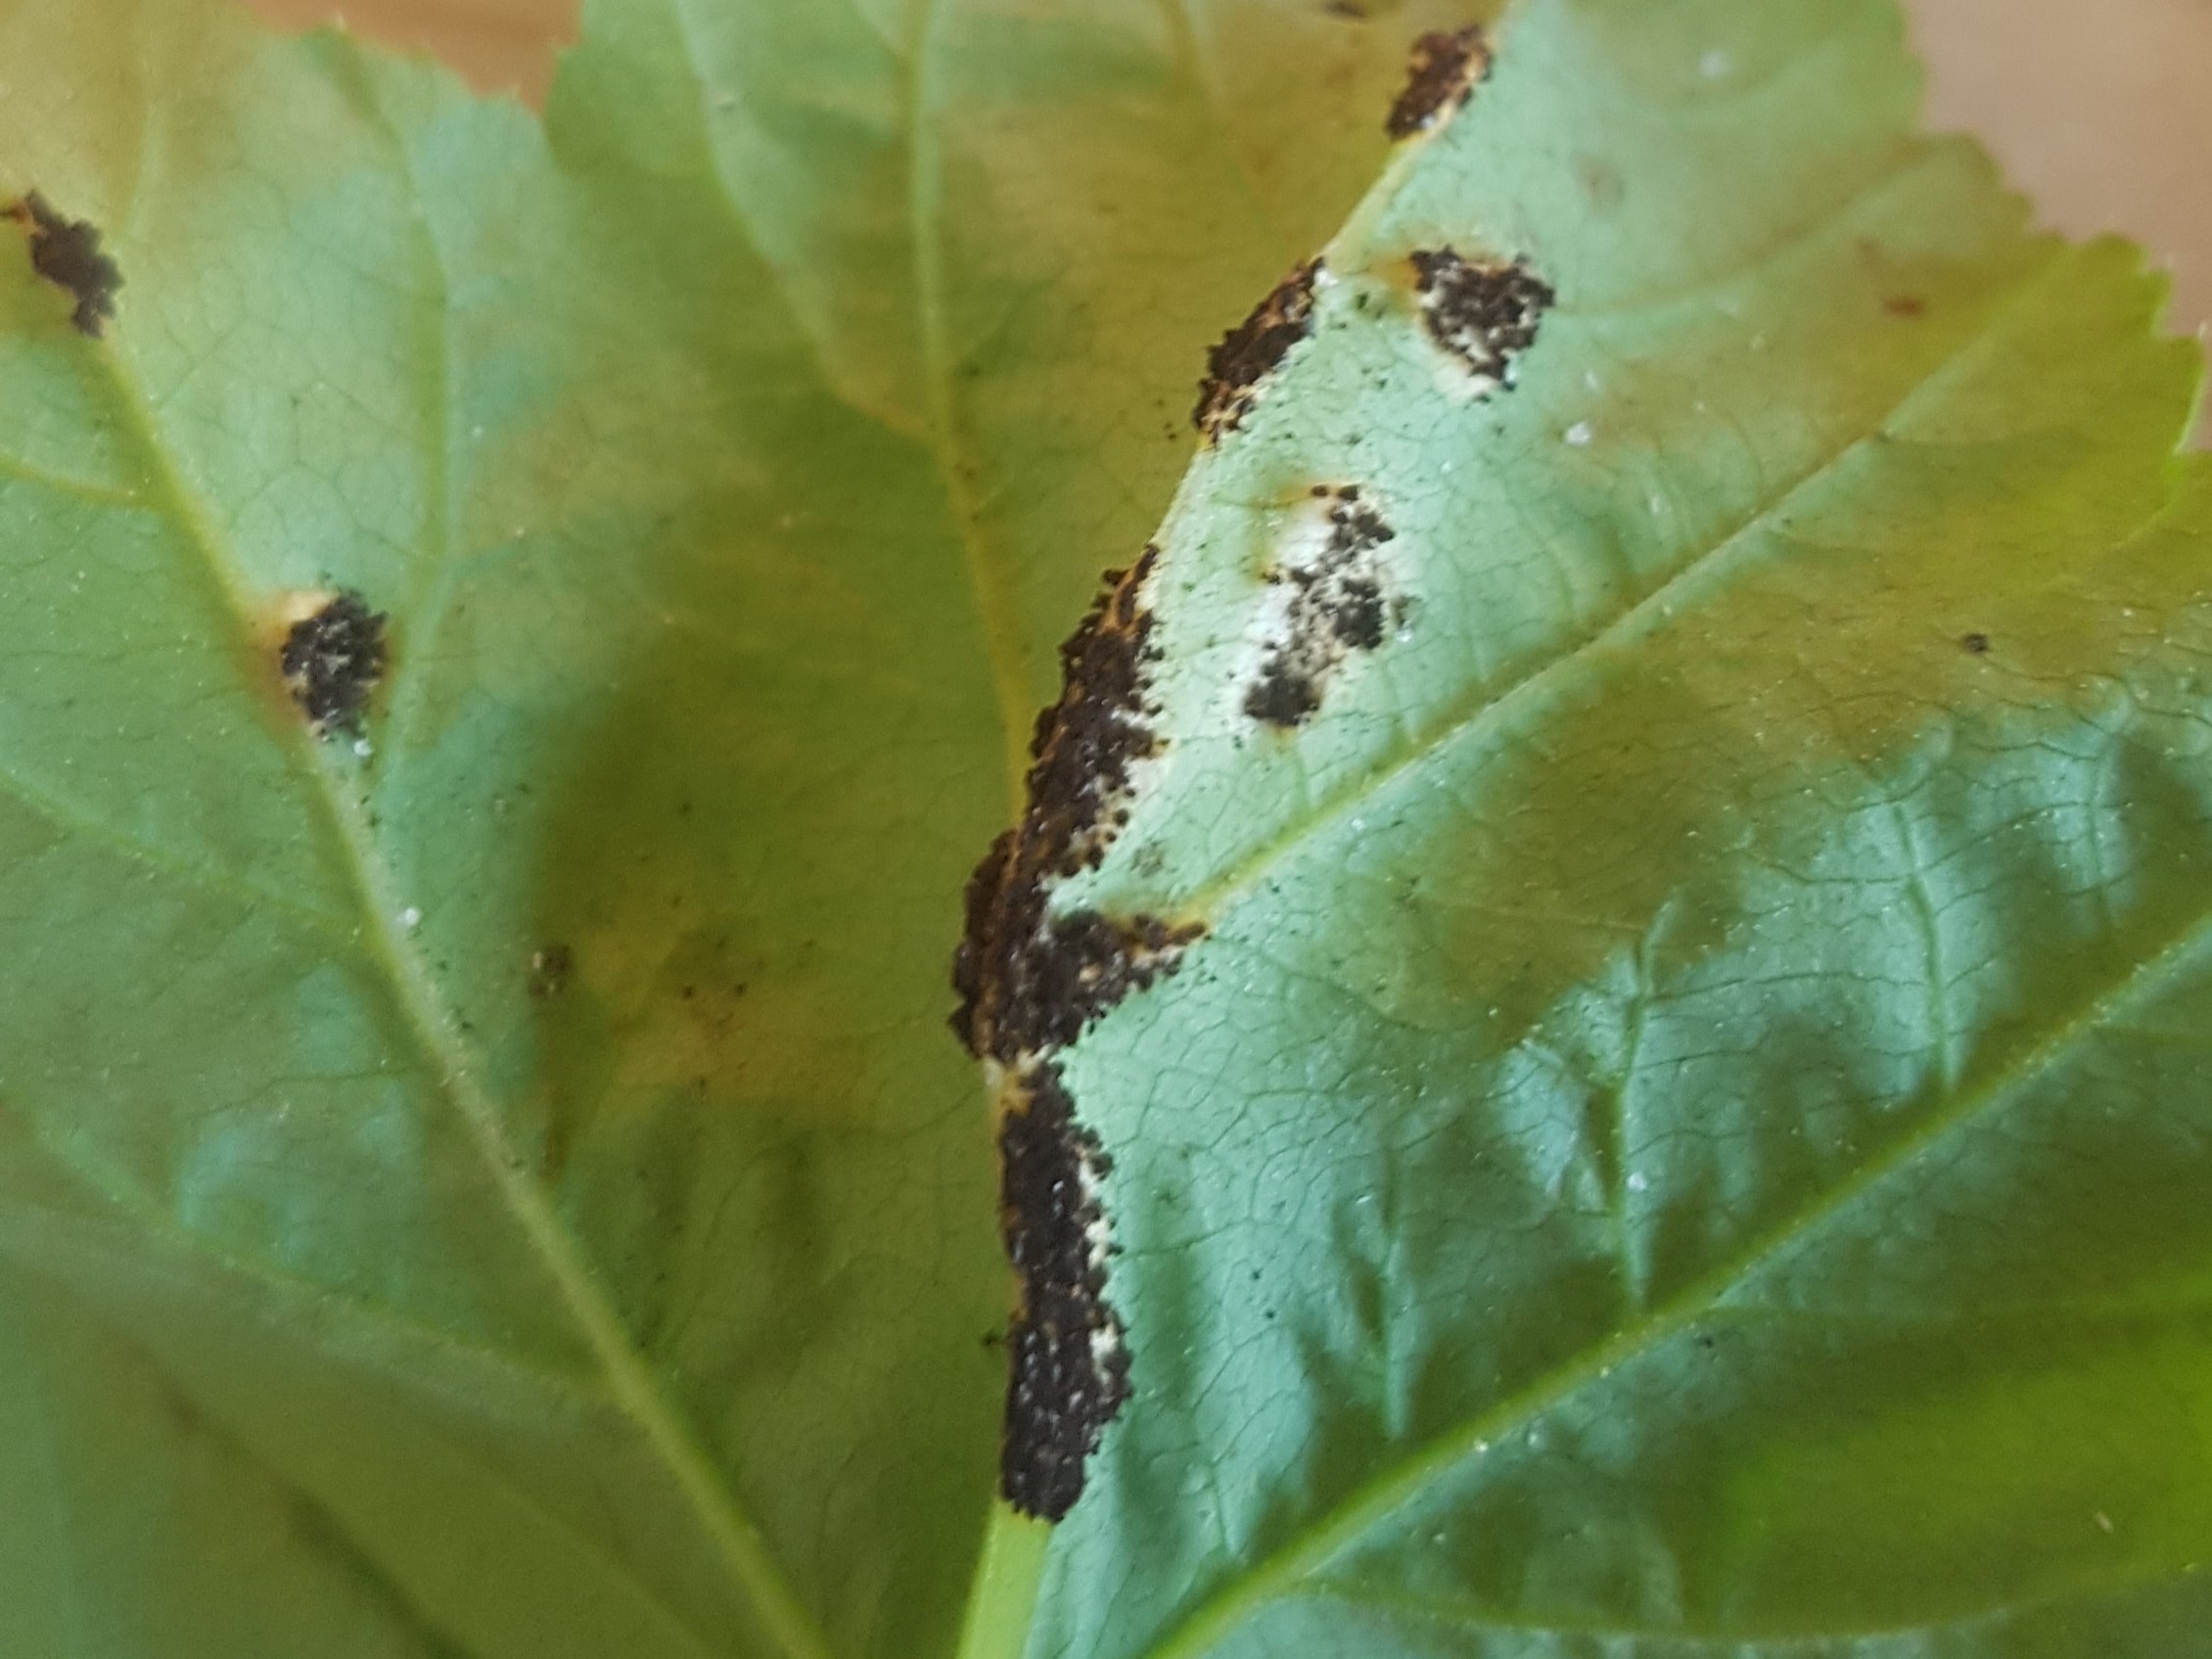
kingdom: Fungi
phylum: Basidiomycota
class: Pucciniomycetes
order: Pucciniales
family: Pucciniaceae
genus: Puccinia
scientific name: Puccinia
